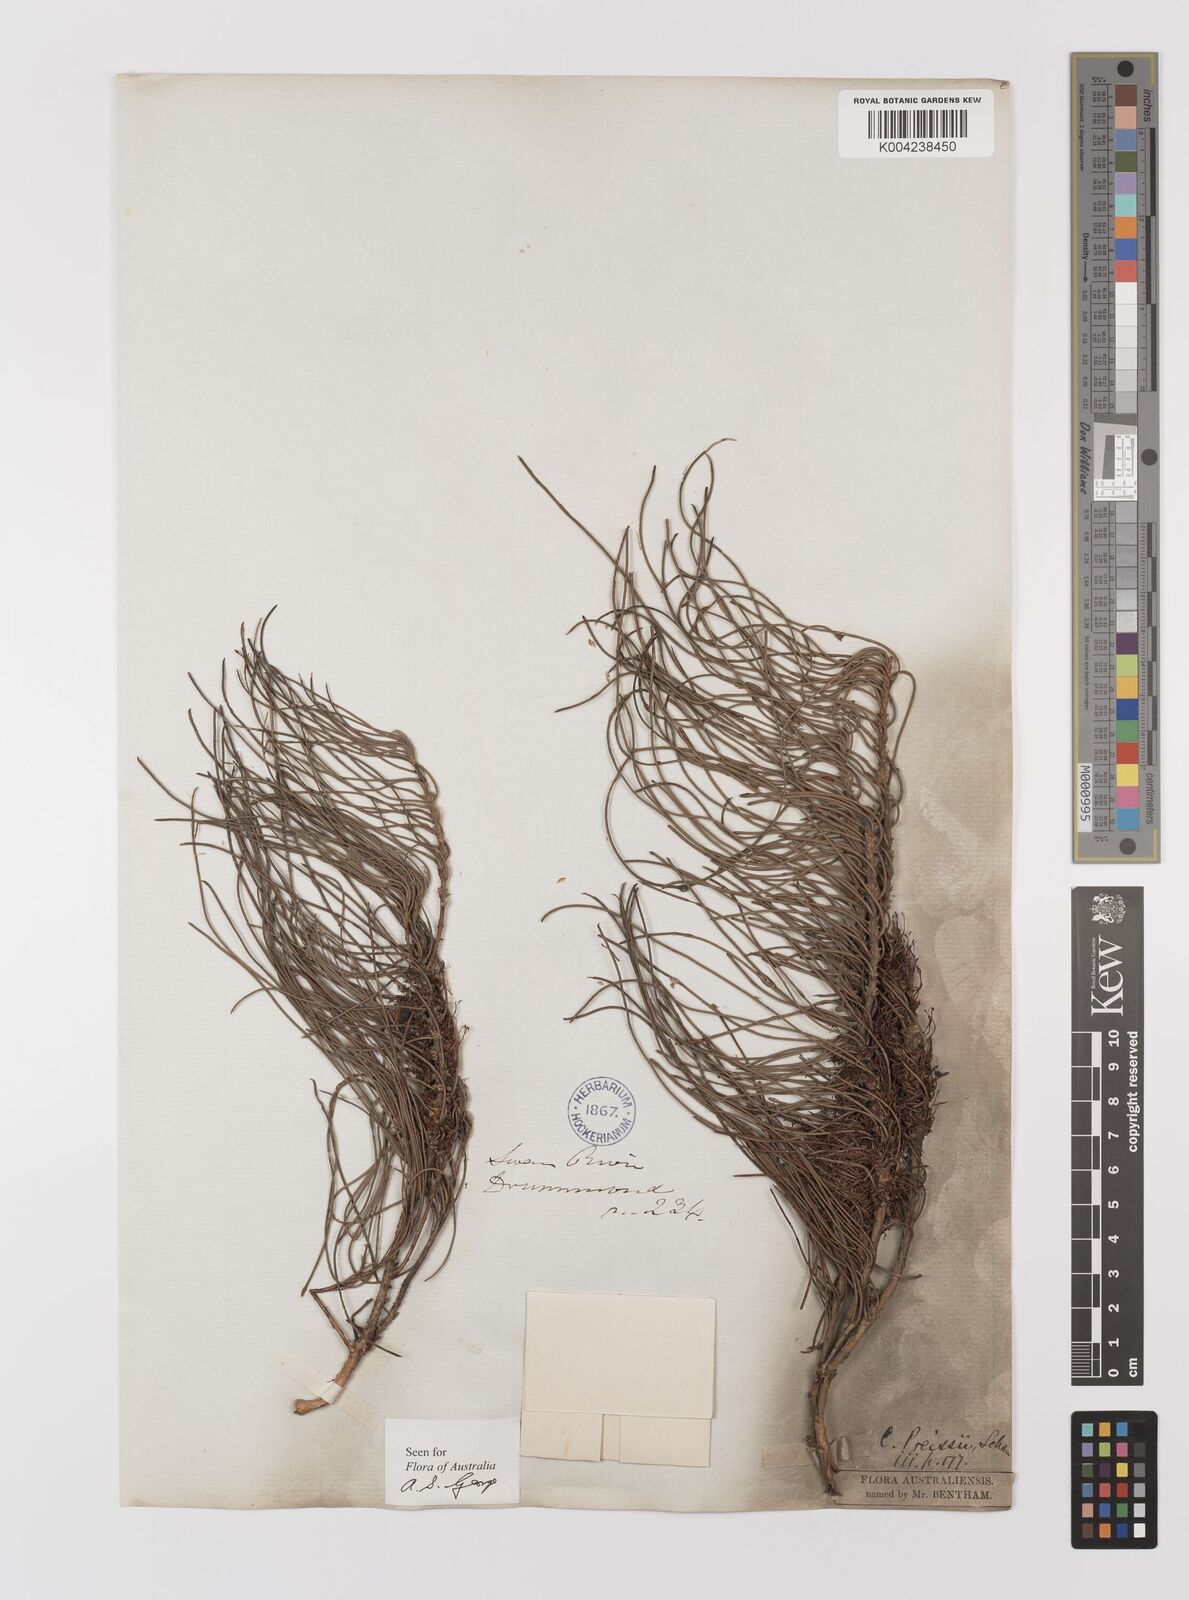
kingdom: Plantae
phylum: Tracheophyta
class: Magnoliopsida
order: Myrtales
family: Myrtaceae
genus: Melaleuca
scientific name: Melaleuca preissii
